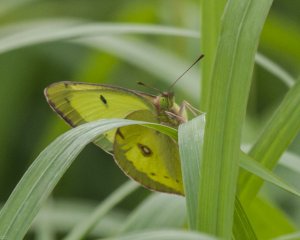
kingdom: Animalia
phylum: Arthropoda
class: Insecta
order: Lepidoptera
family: Pieridae
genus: Colias
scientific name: Colias philodice
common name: Clouded Sulphur
